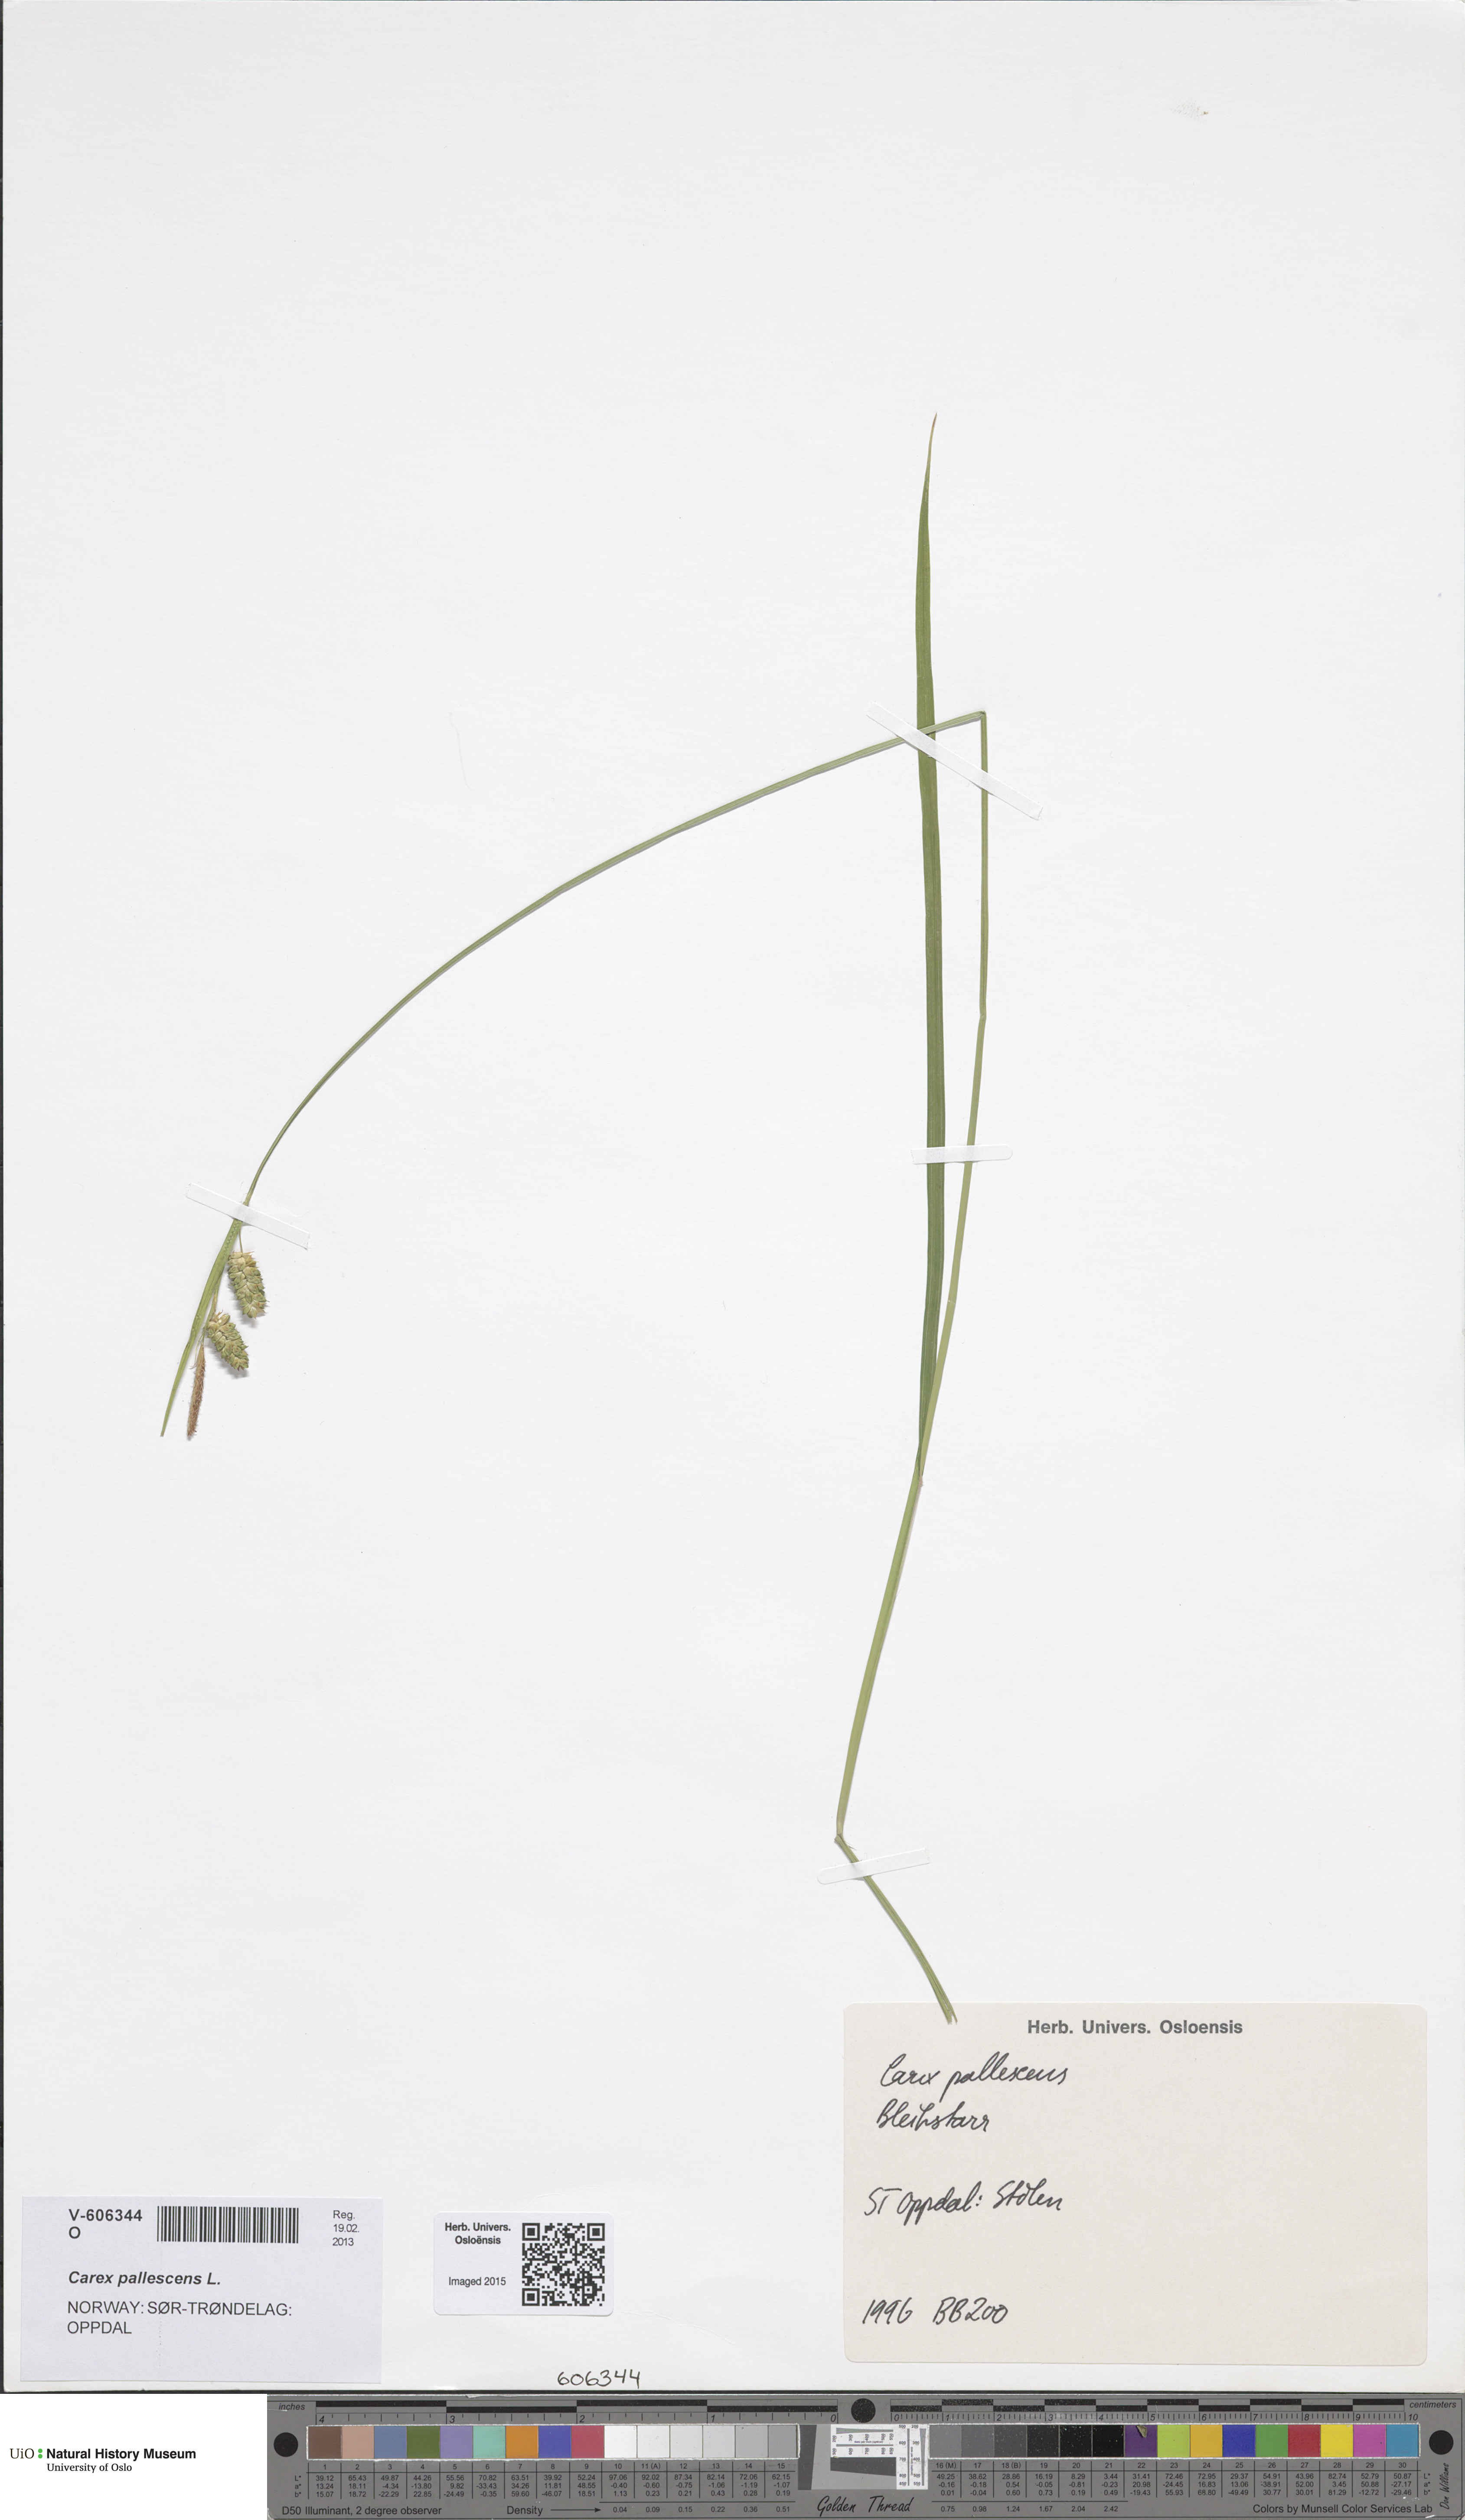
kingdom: Plantae
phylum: Tracheophyta
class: Liliopsida
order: Poales
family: Cyperaceae
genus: Carex
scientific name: Carex pallescens
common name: Pale sedge
